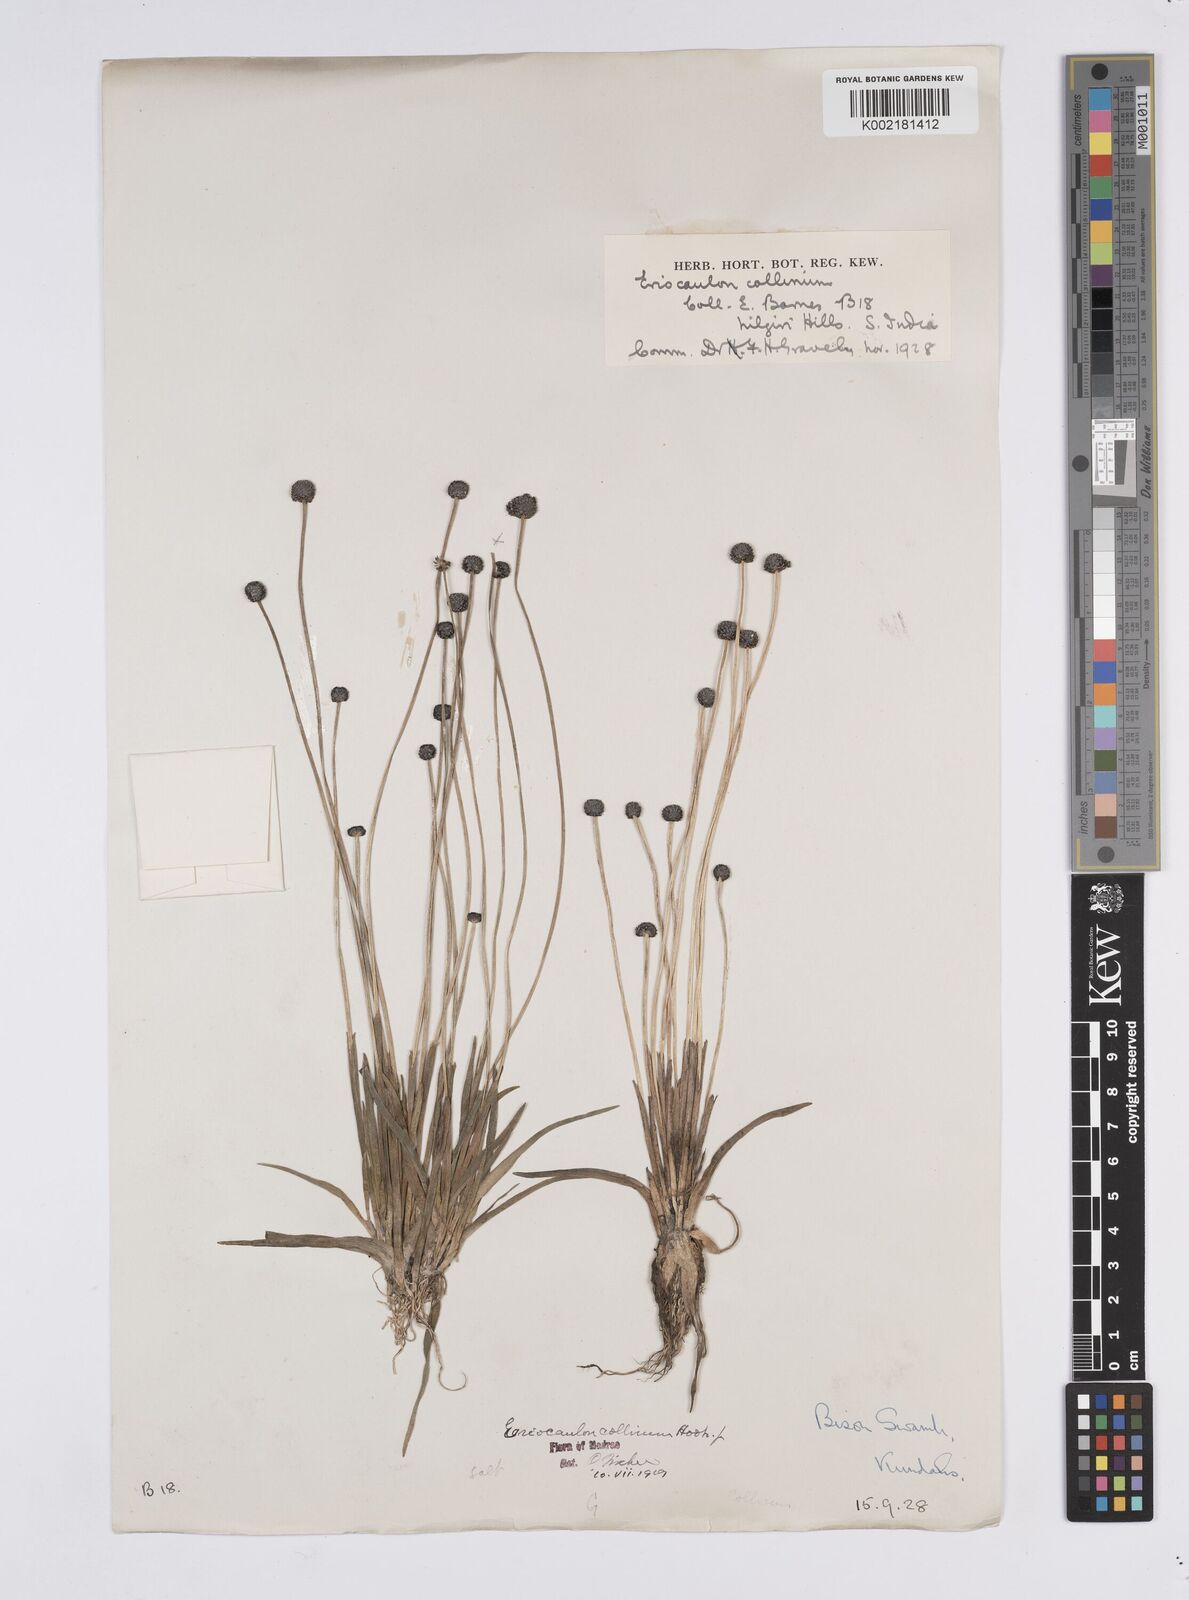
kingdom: Plantae
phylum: Tracheophyta
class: Liliopsida
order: Poales
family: Eriocaulaceae
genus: Eriocaulon
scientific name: Eriocaulon odoratum
